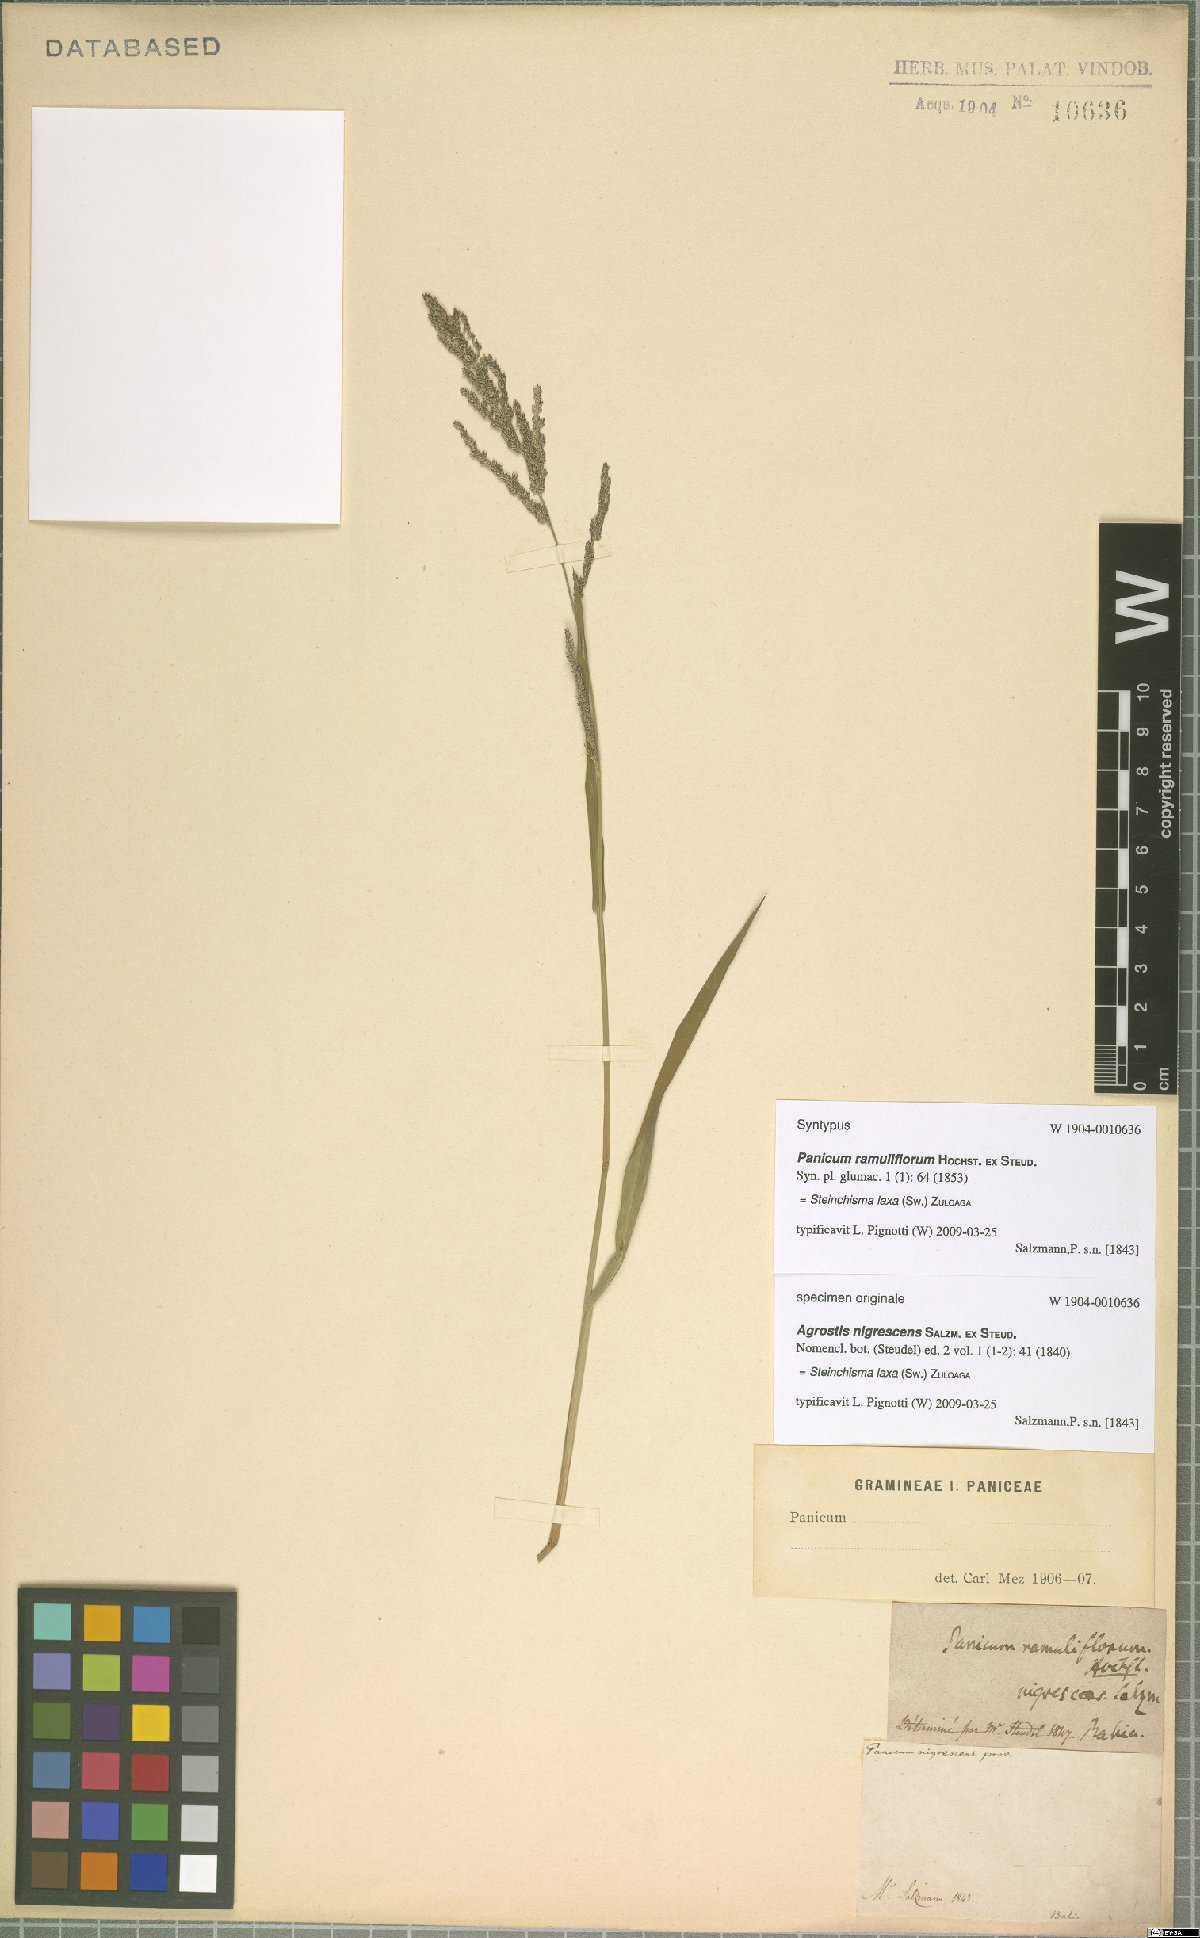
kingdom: Plantae
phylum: Tracheophyta
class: Liliopsida
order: Poales
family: Poaceae
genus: Steinchisma
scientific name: Steinchisma laxum
